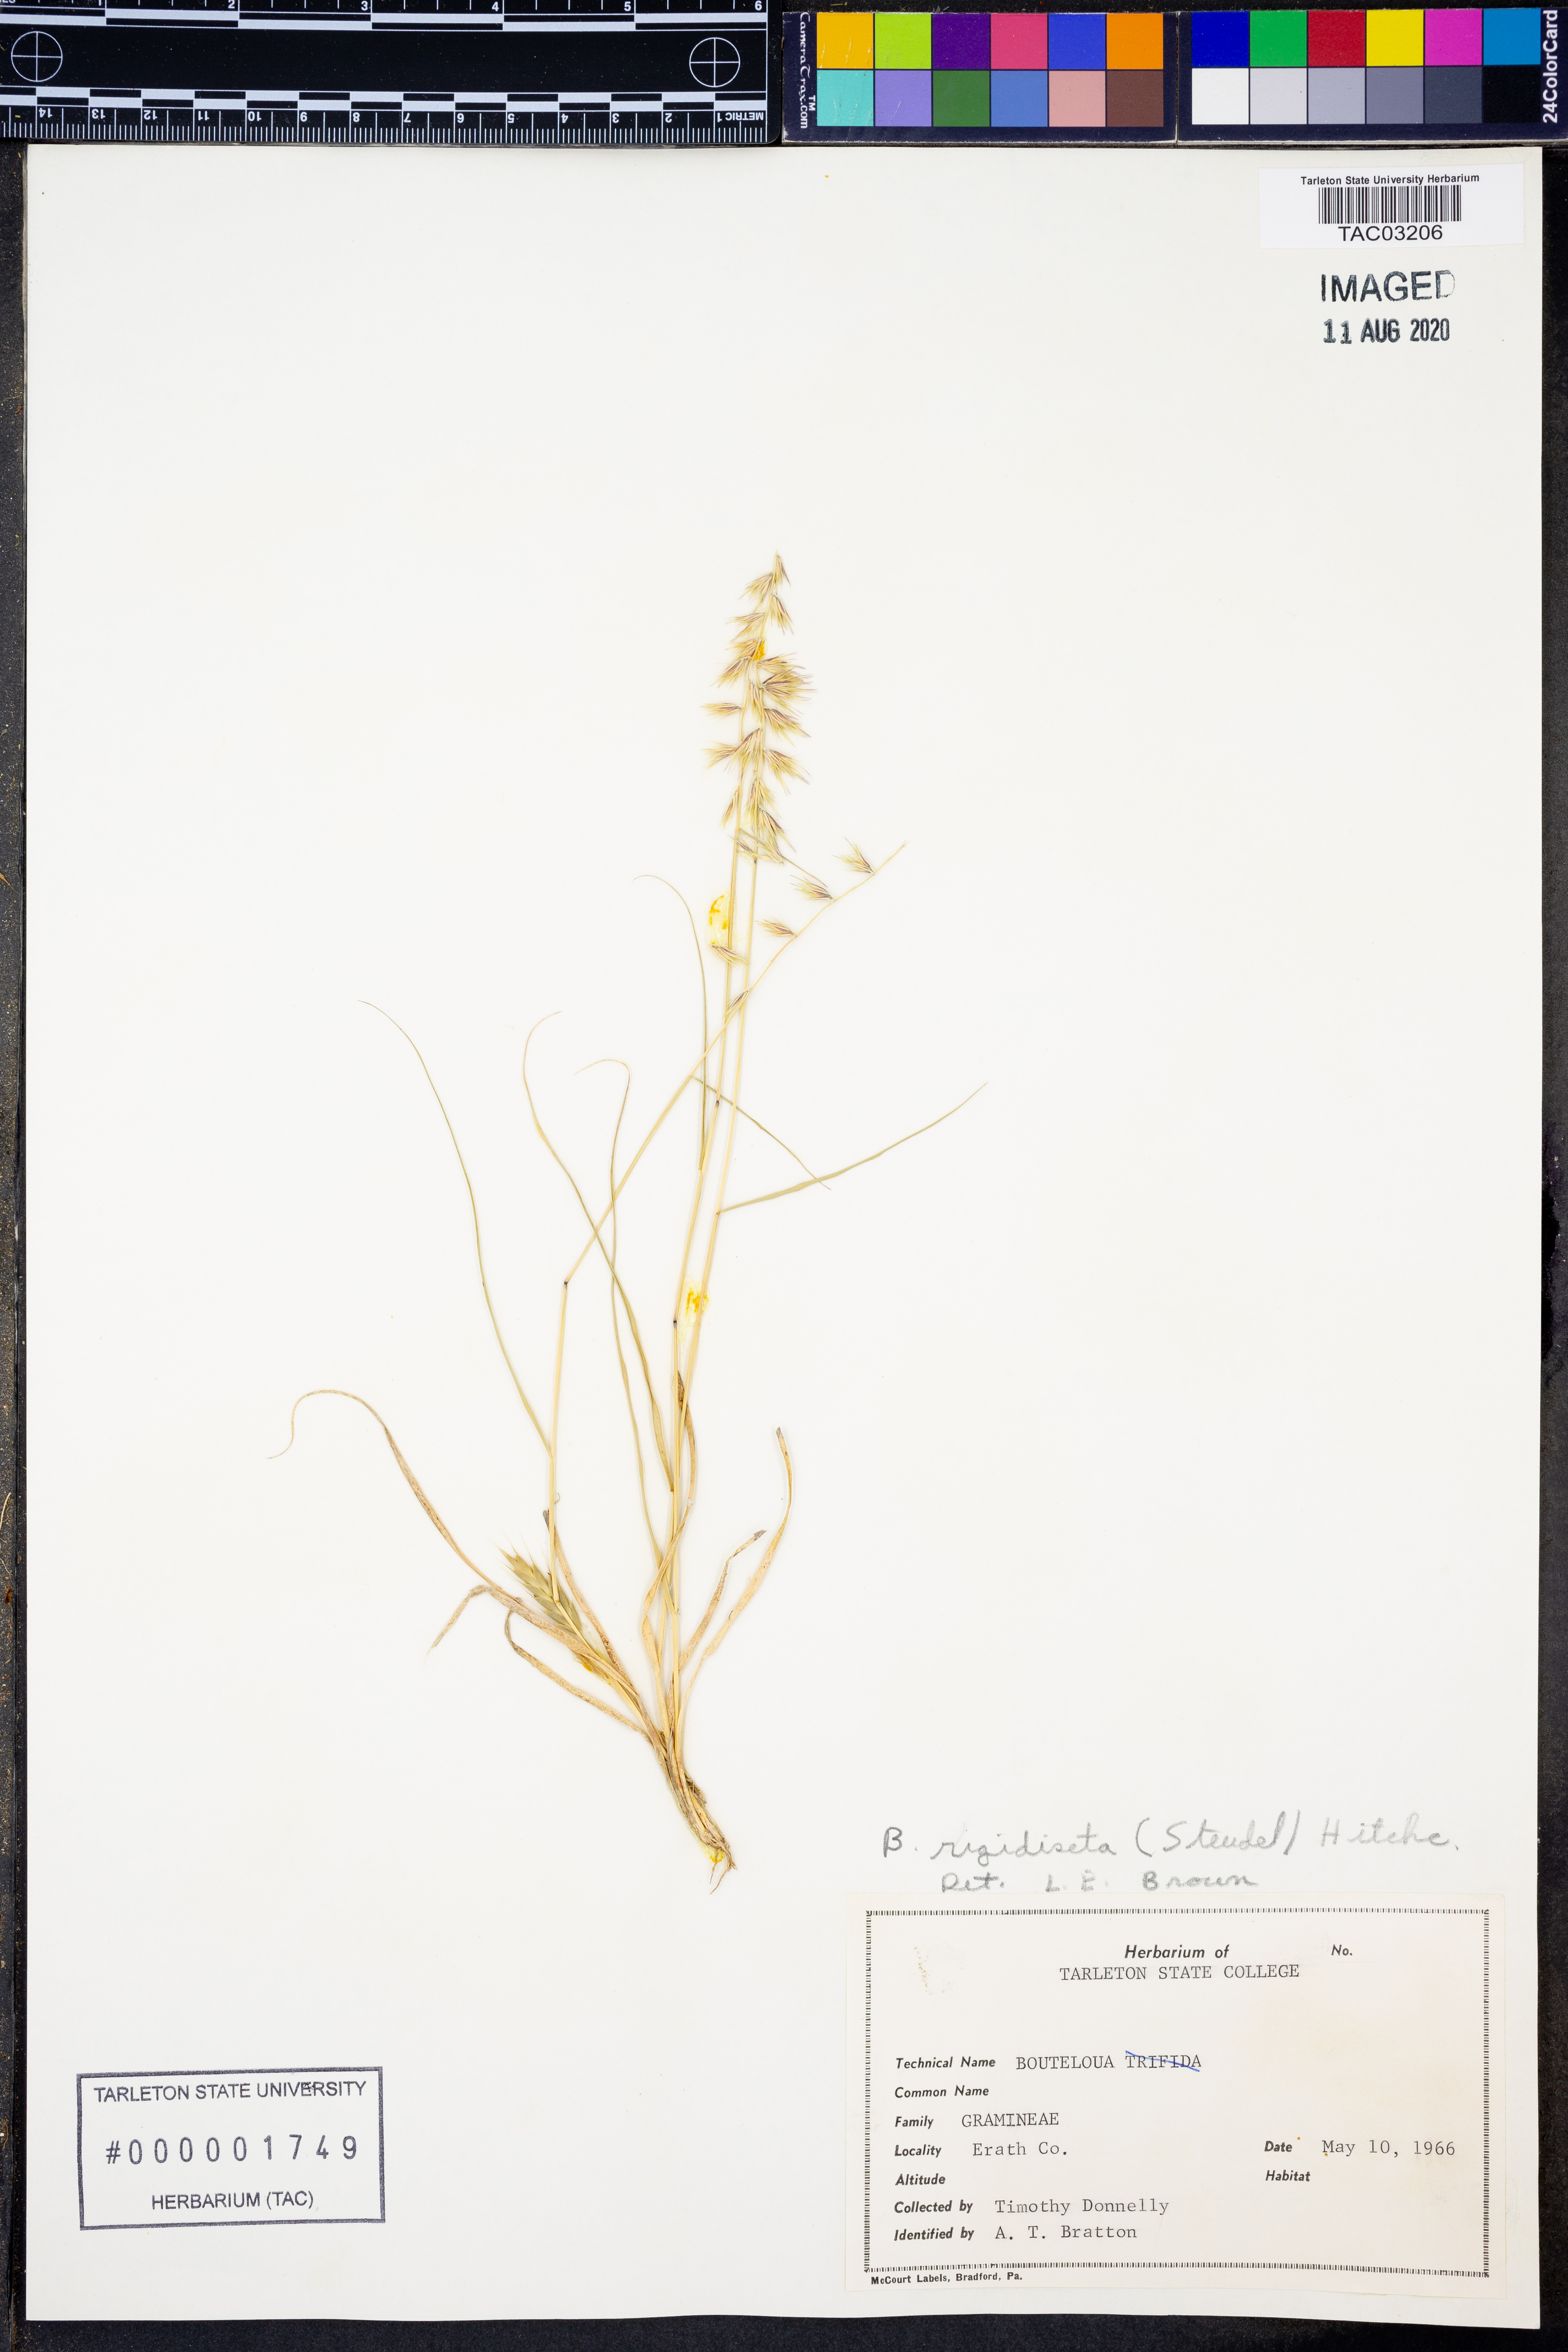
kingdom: Plantae
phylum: Tracheophyta
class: Liliopsida
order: Poales
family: Poaceae
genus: Bouteloua
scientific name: Bouteloua rigidiseta
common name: Texas grama
